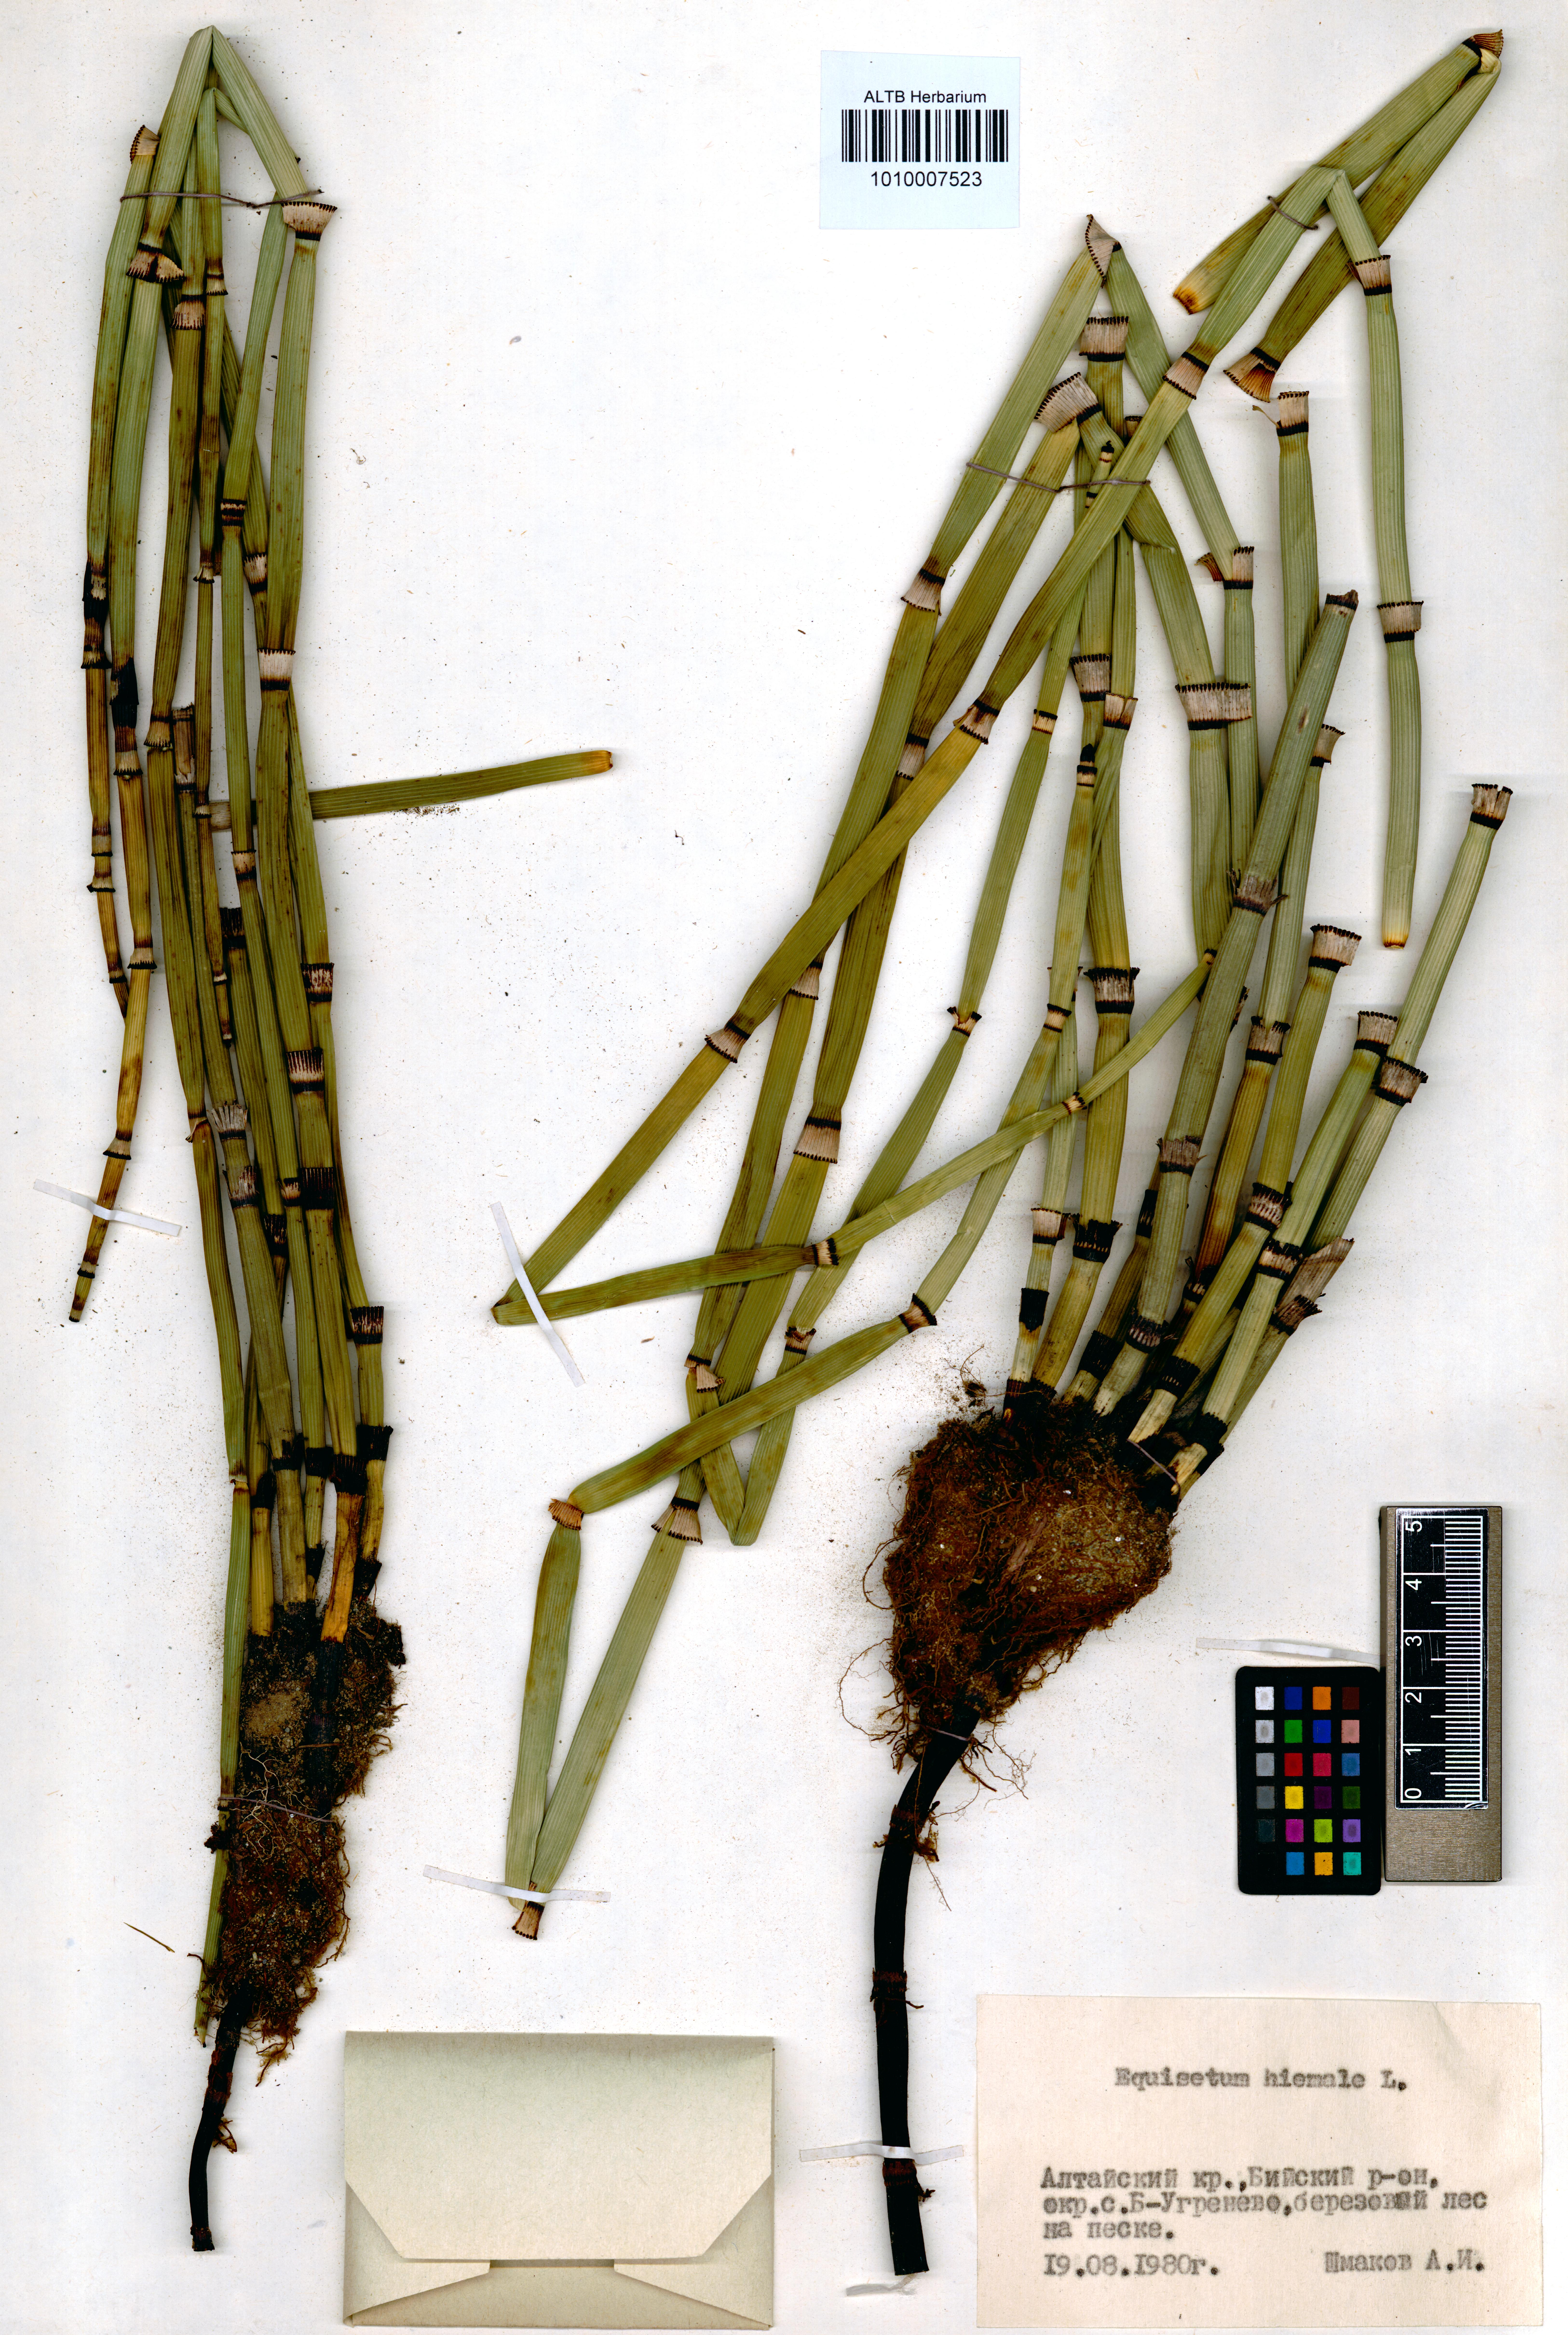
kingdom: Plantae
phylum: Tracheophyta
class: Polypodiopsida
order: Equisetales
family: Equisetaceae
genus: Equisetum
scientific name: Equisetum hyemale
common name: Rough horsetail
